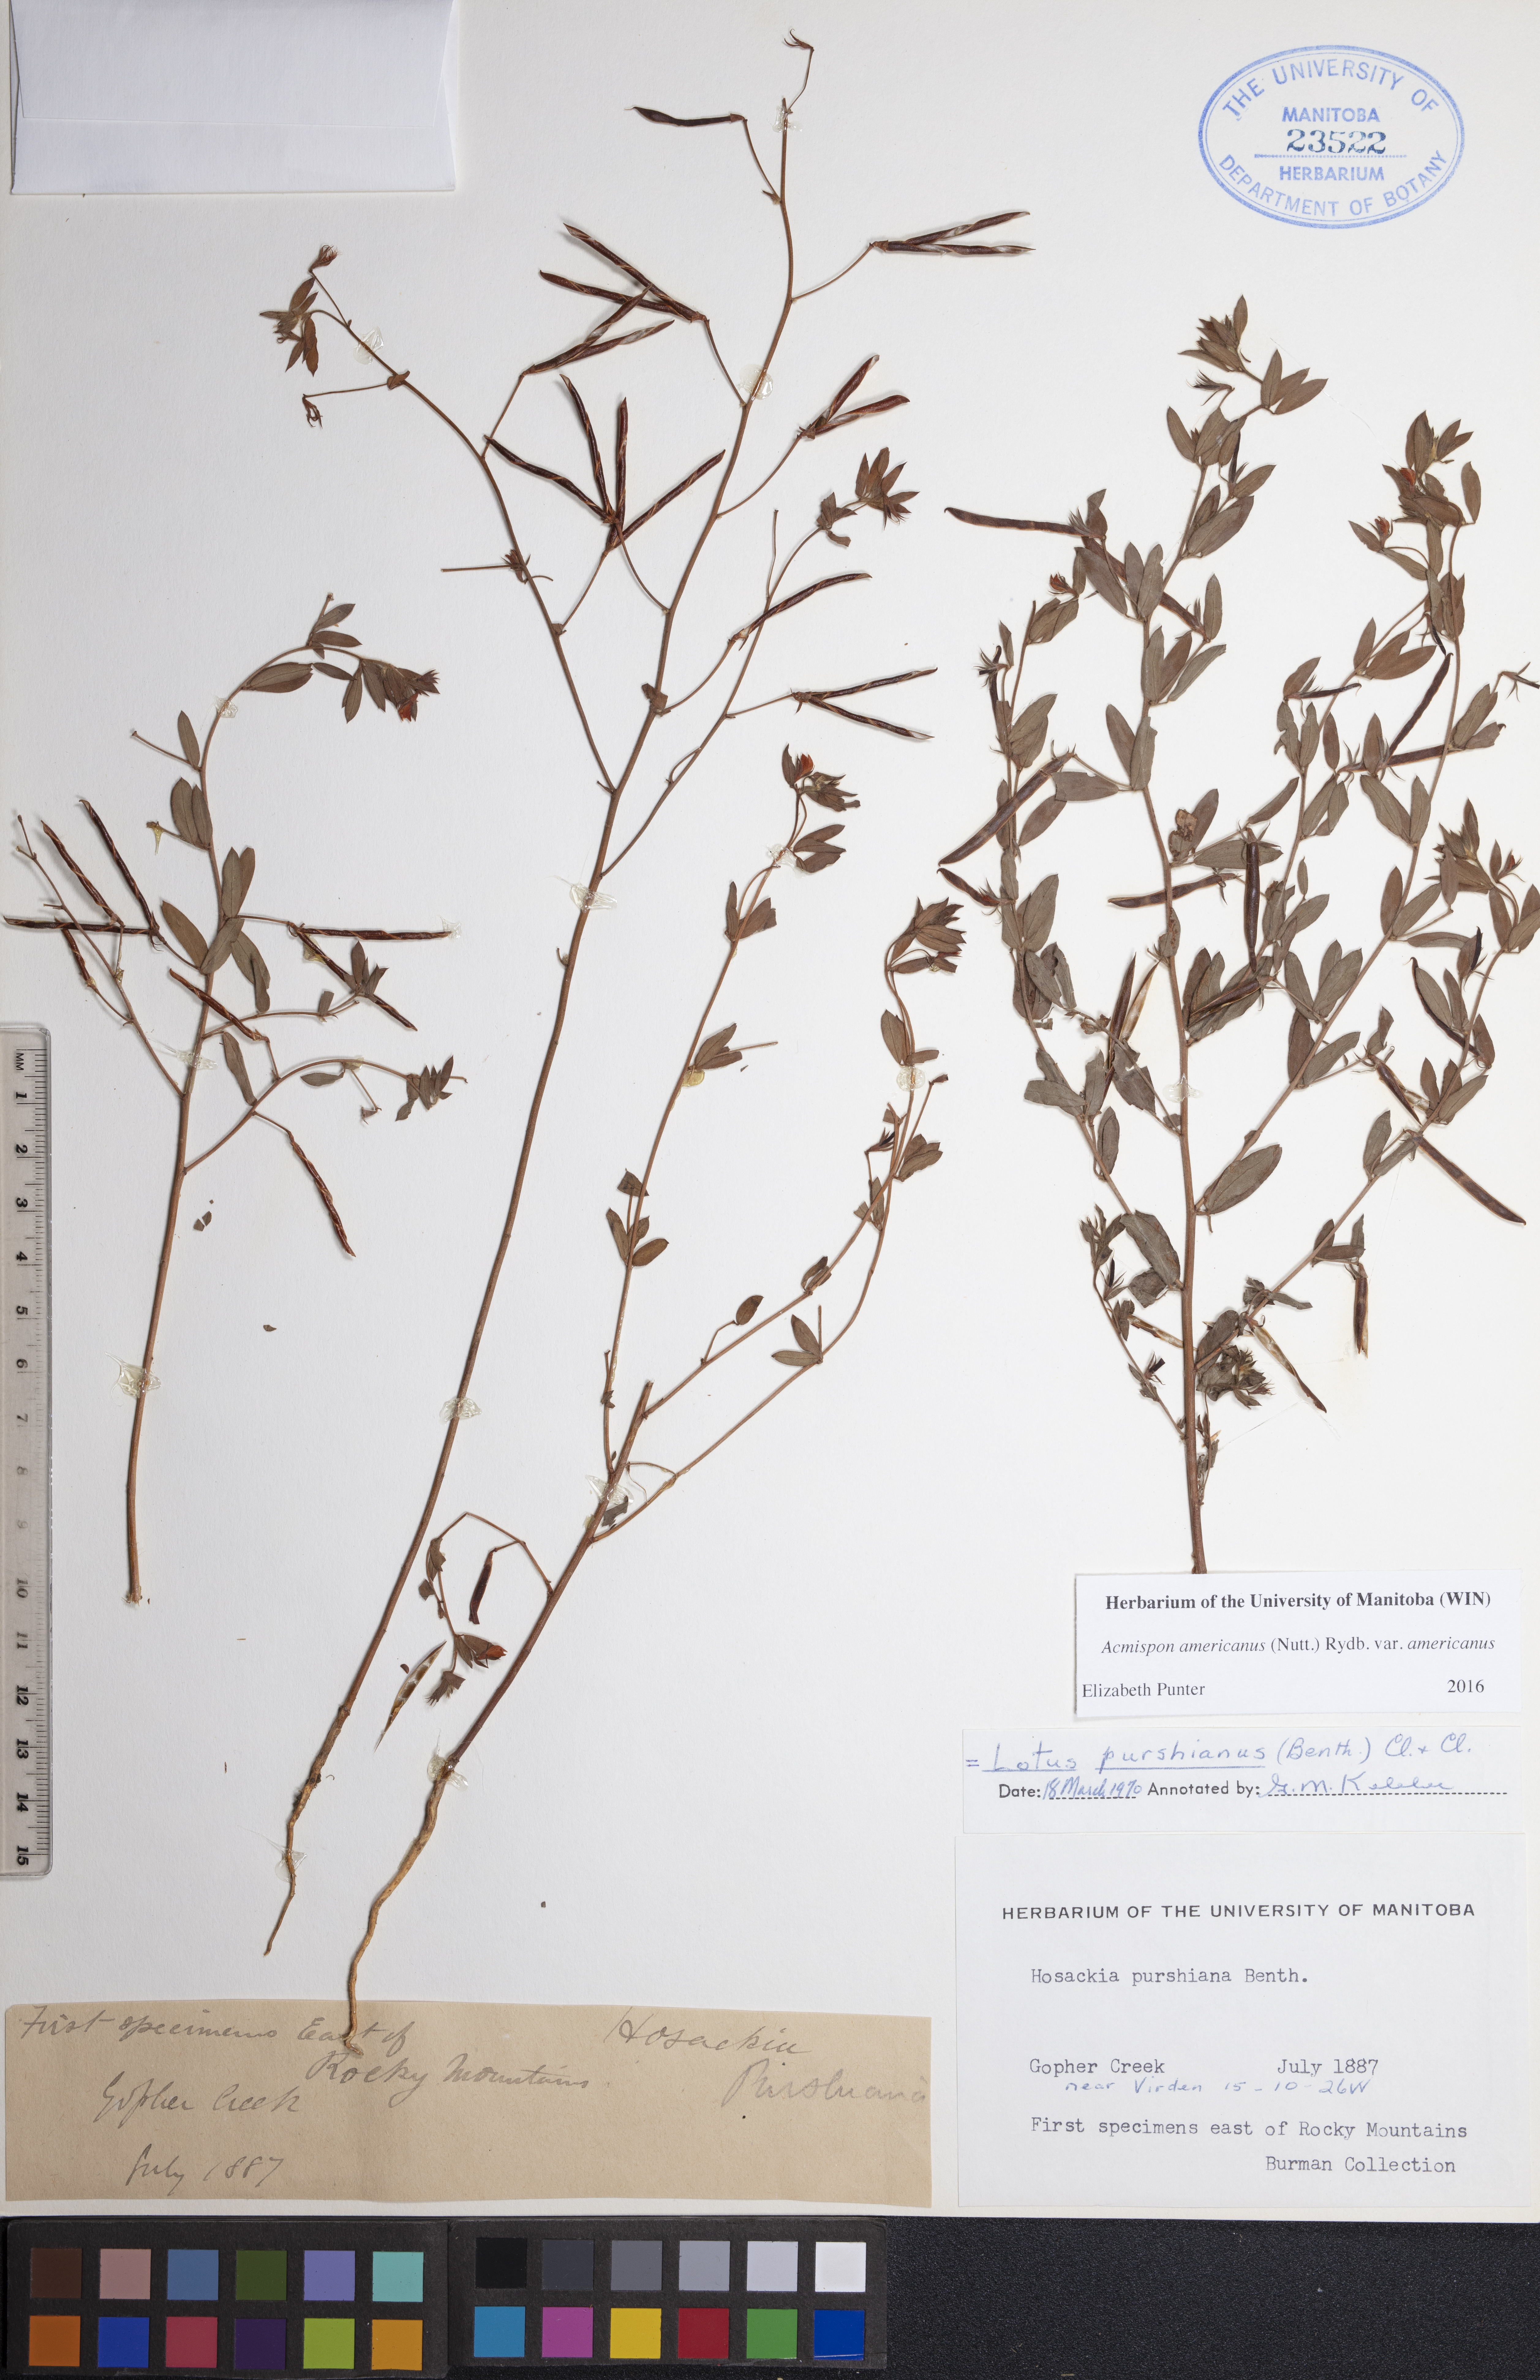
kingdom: Plantae
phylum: Tracheophyta
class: Magnoliopsida
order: Fabales
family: Fabaceae
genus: Acmispon
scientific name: Acmispon americanus
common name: American bird's-foot trefoil
